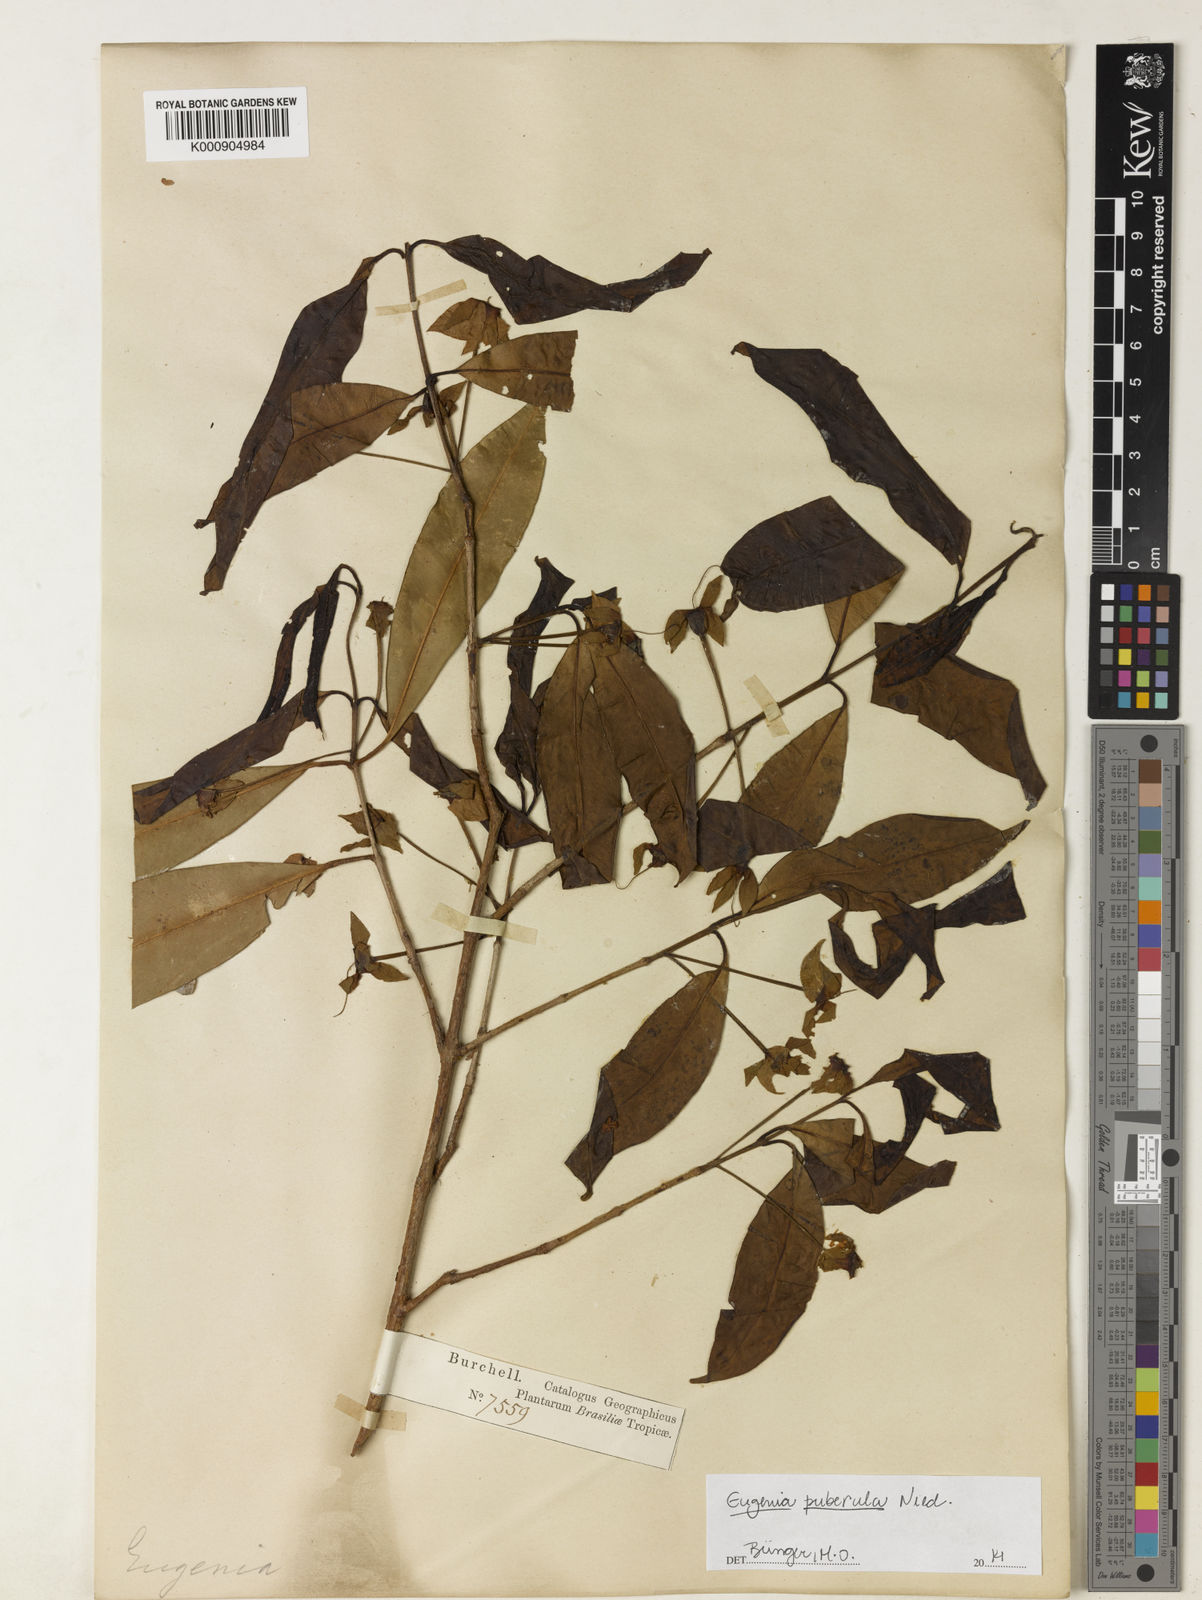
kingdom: Plantae
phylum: Tracheophyta
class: Magnoliopsida
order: Myrtales
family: Myrtaceae
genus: Eugenia
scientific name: Eugenia puberula
